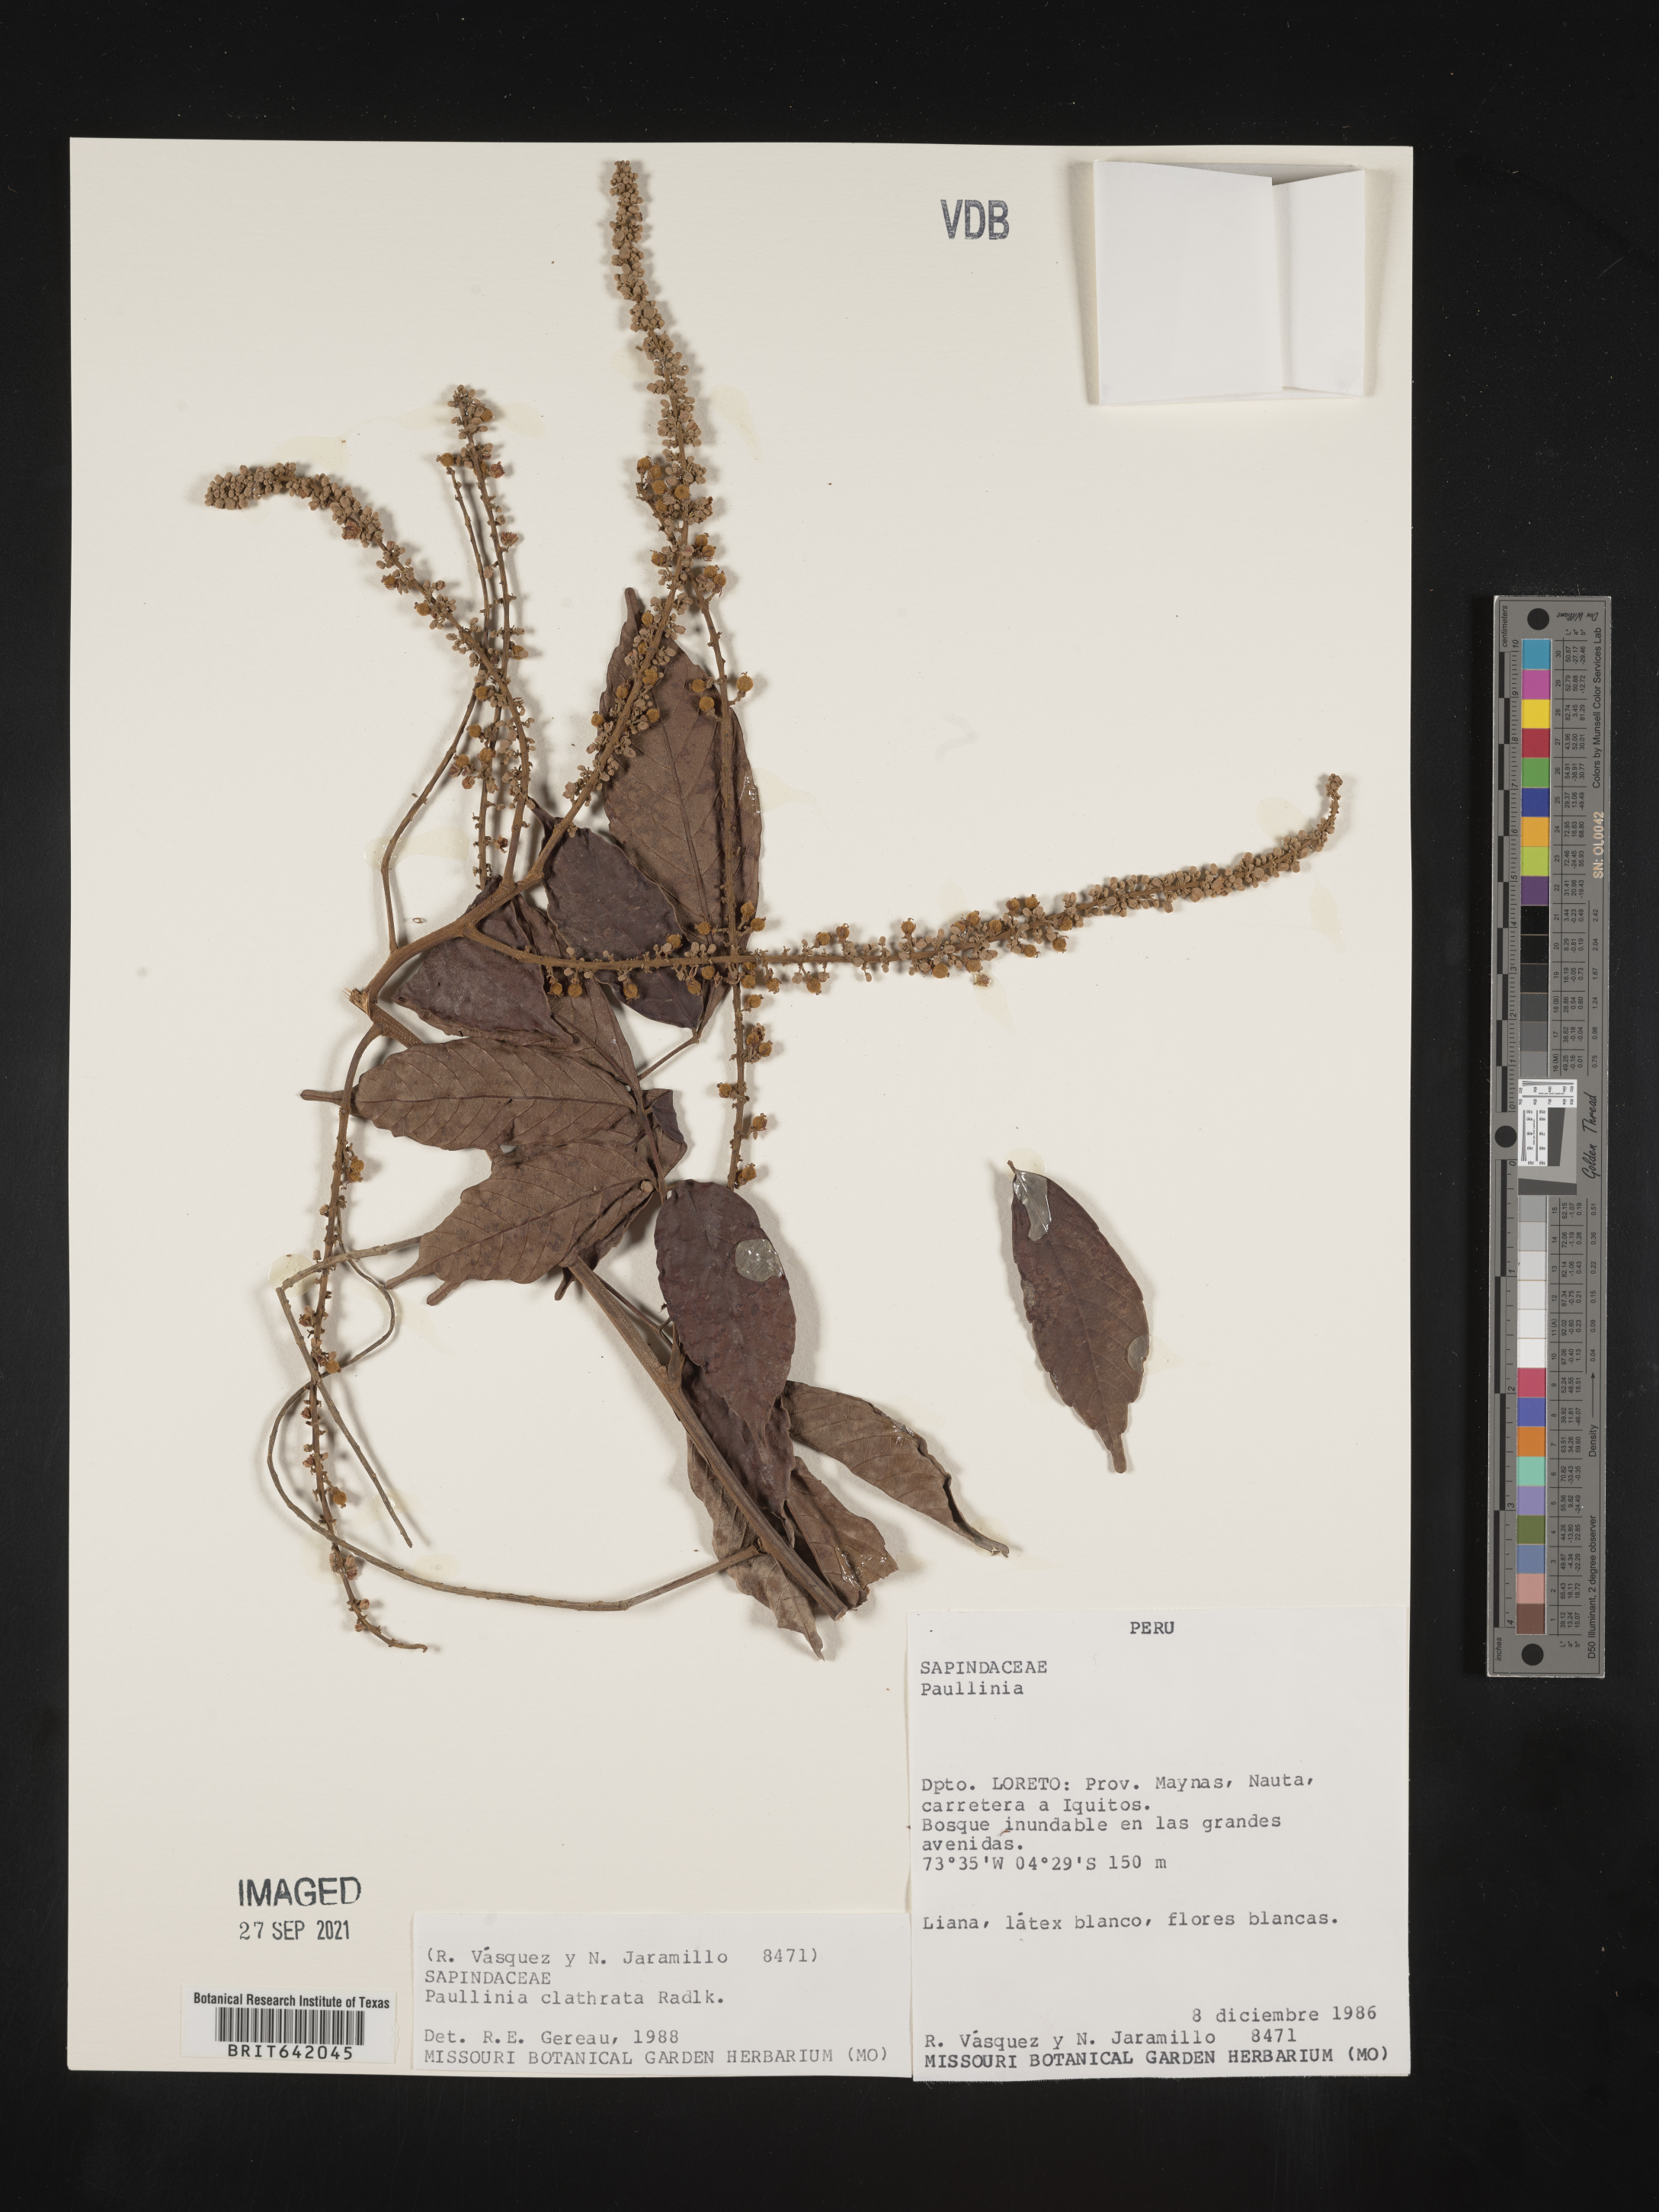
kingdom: Plantae
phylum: Tracheophyta
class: Magnoliopsida
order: Sapindales
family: Sapindaceae
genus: Paullinia
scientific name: Paullinia
